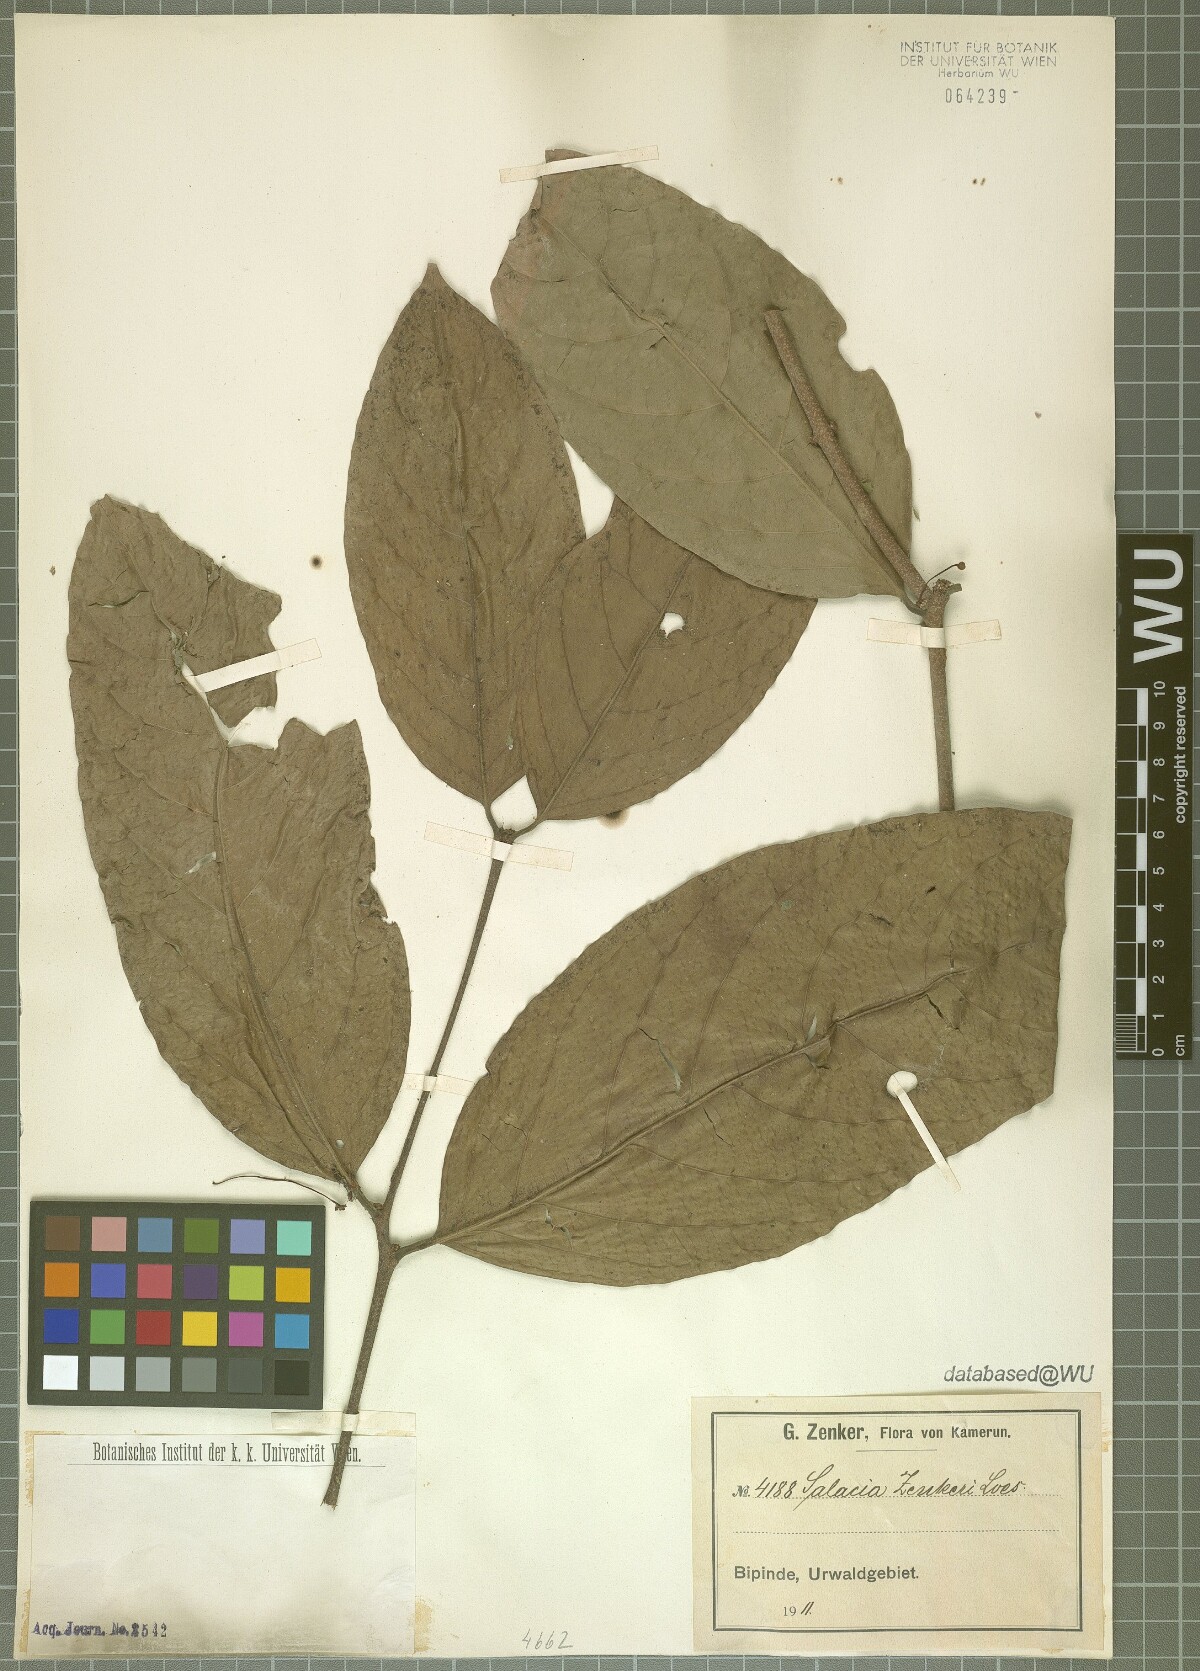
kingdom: Plantae
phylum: Tracheophyta
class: Magnoliopsida
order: Celastrales
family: Celastraceae
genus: Salacia
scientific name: Salacia zenkeri
